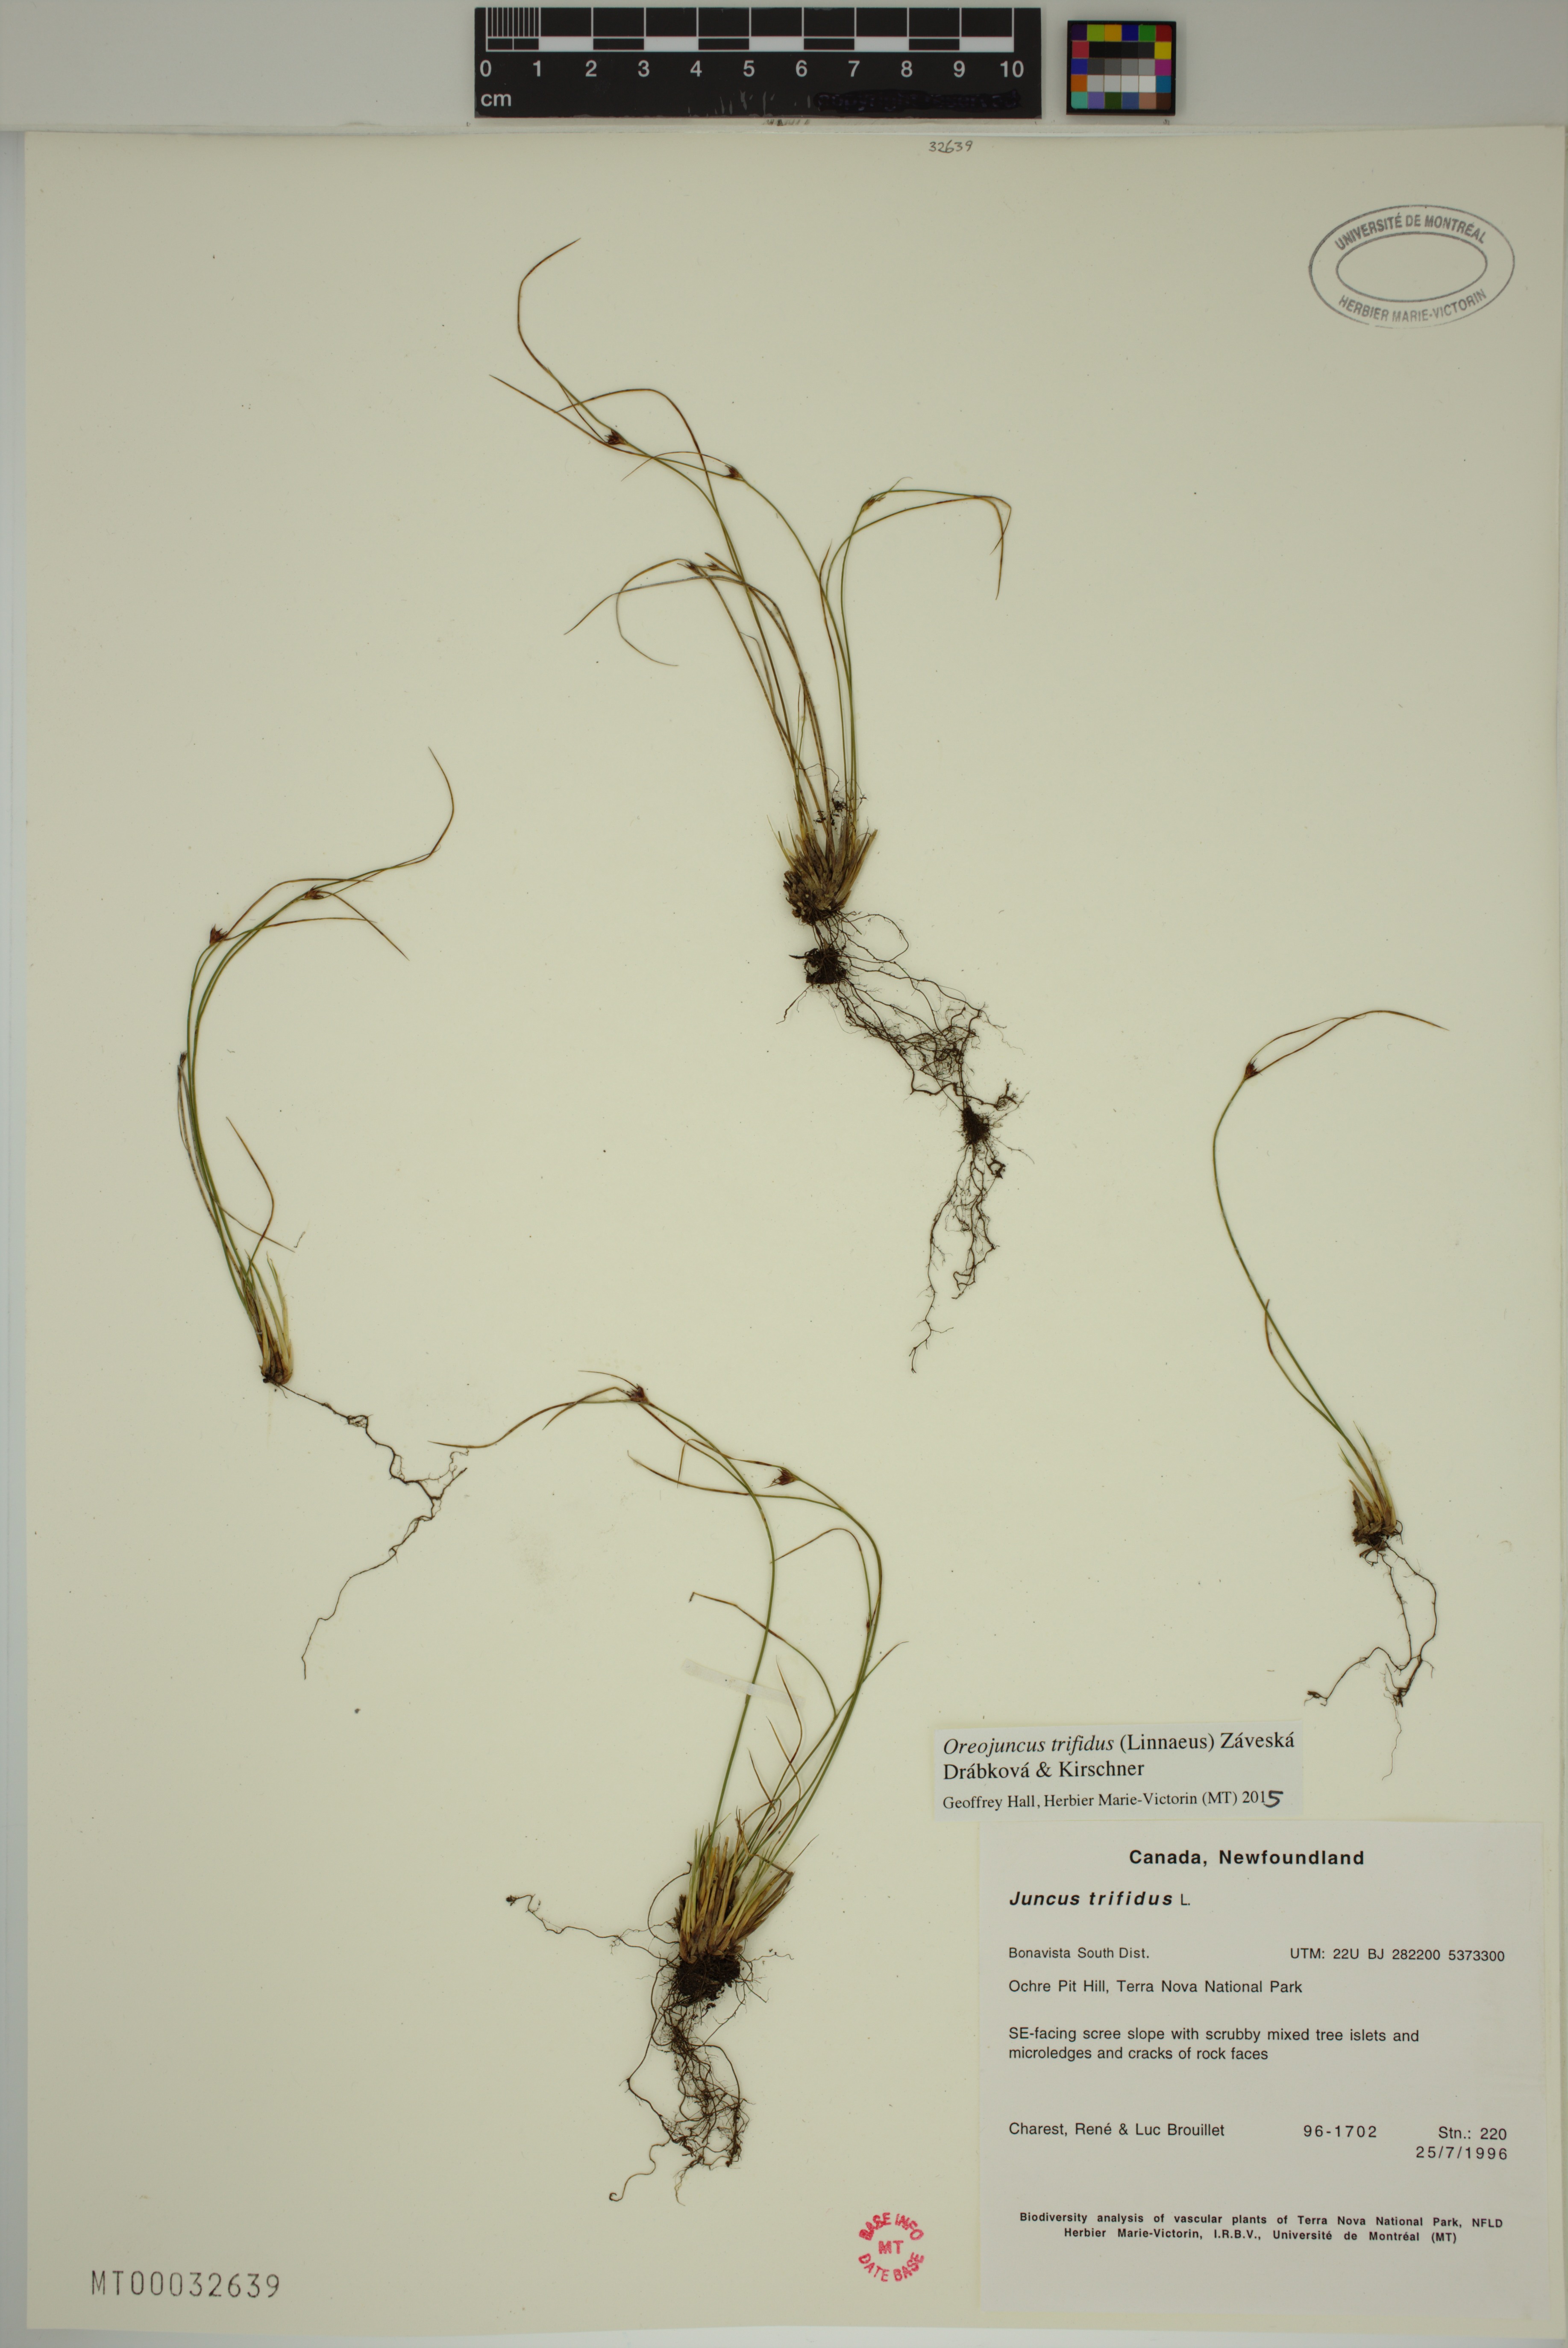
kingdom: Plantae
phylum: Tracheophyta
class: Liliopsida
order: Poales
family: Juncaceae
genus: Oreojuncus
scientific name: Oreojuncus trifidus
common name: Highland rush
